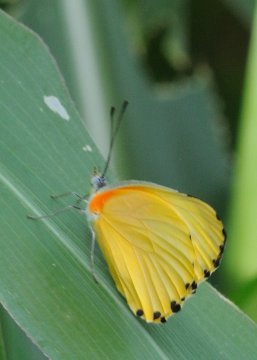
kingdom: Animalia
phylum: Arthropoda
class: Insecta
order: Lepidoptera
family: Pieridae
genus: Mylothris
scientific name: Mylothris agathina
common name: Eastern Dotted Border
